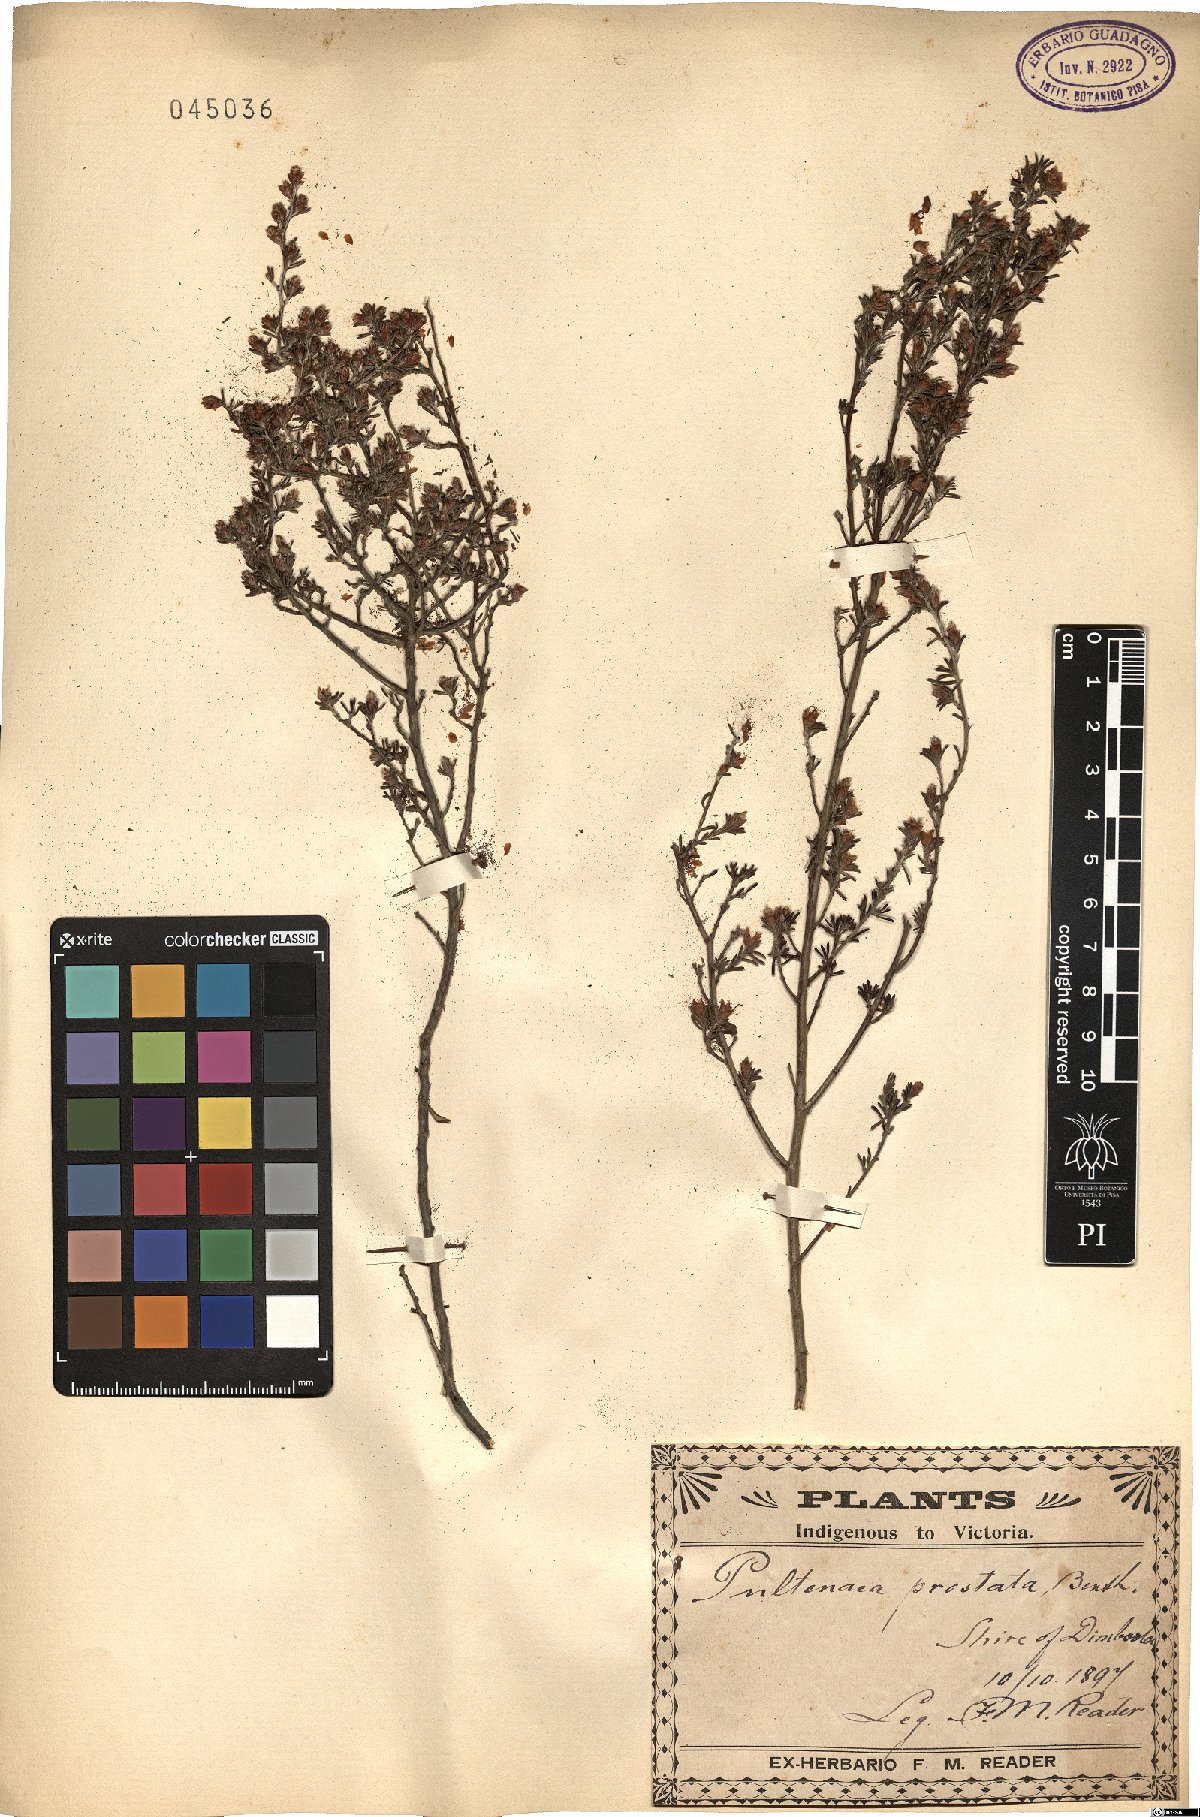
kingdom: Plantae
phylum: Tracheophyta
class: Magnoliopsida
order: Fabales
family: Fabaceae
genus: Pultenaea
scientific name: Pultenaea prostrata
